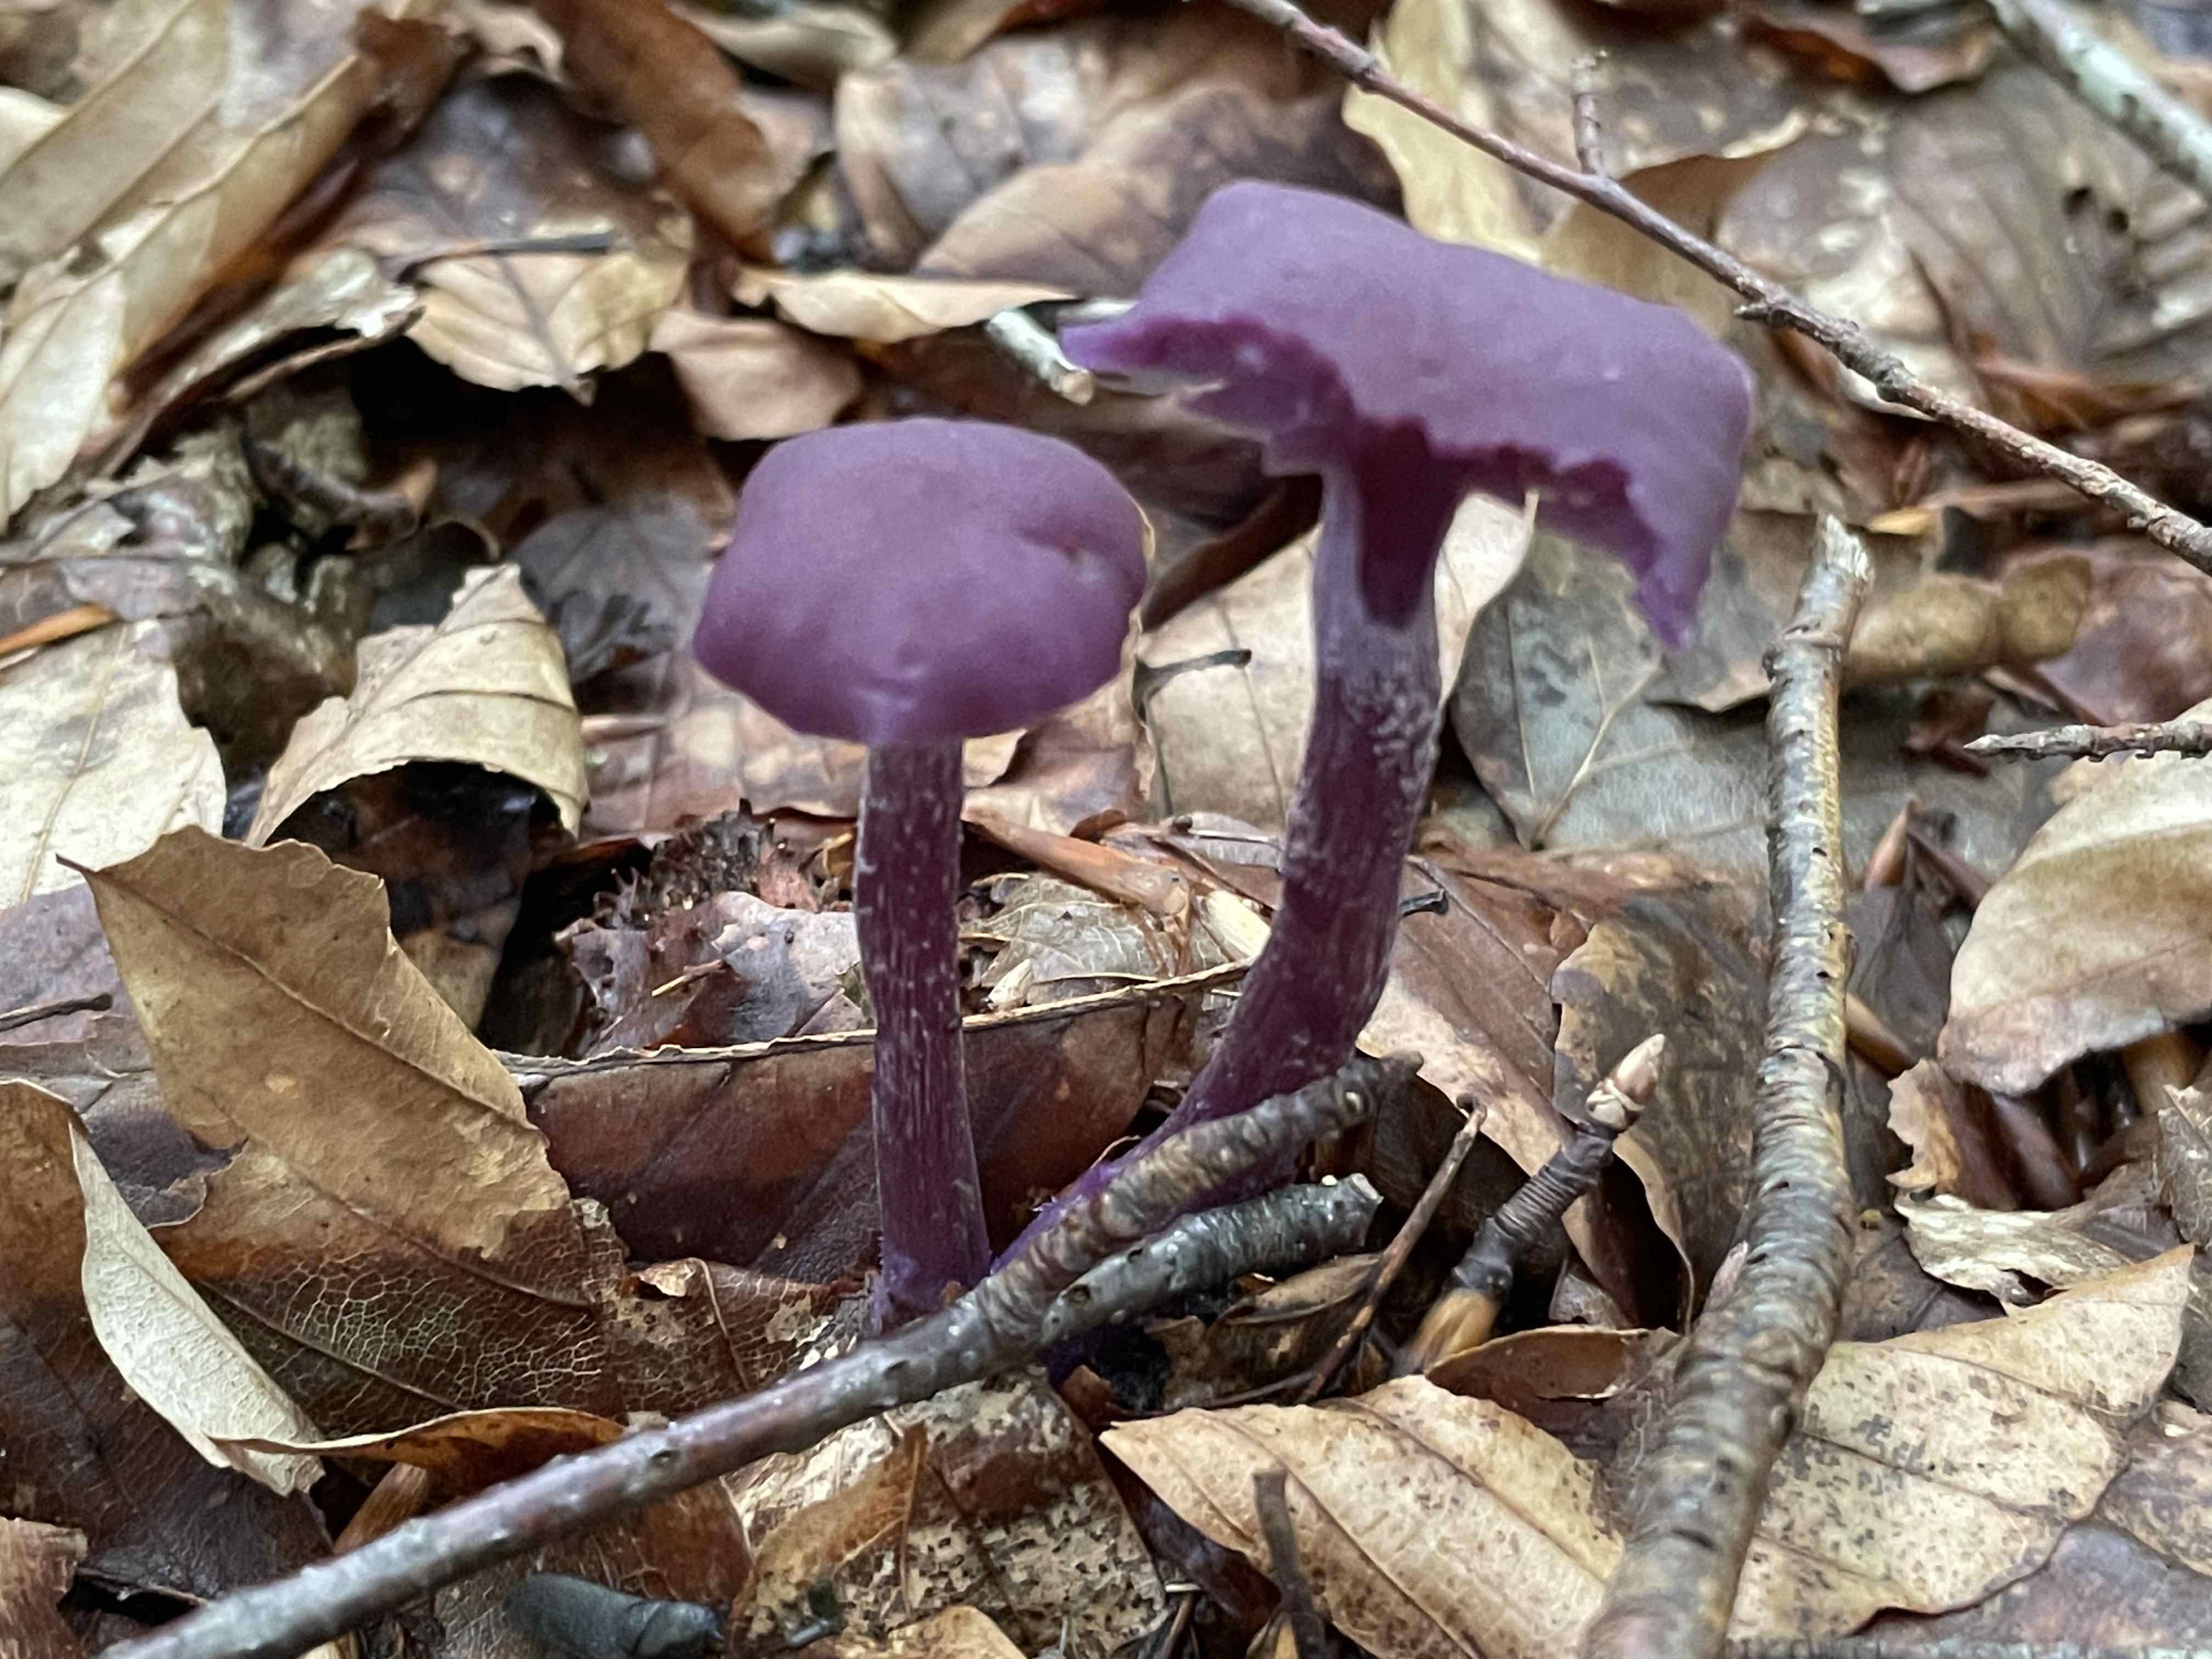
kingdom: Fungi
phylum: Basidiomycota
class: Agaricomycetes
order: Agaricales
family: Hydnangiaceae
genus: Laccaria
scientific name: Laccaria amethystina
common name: violet ametysthat
